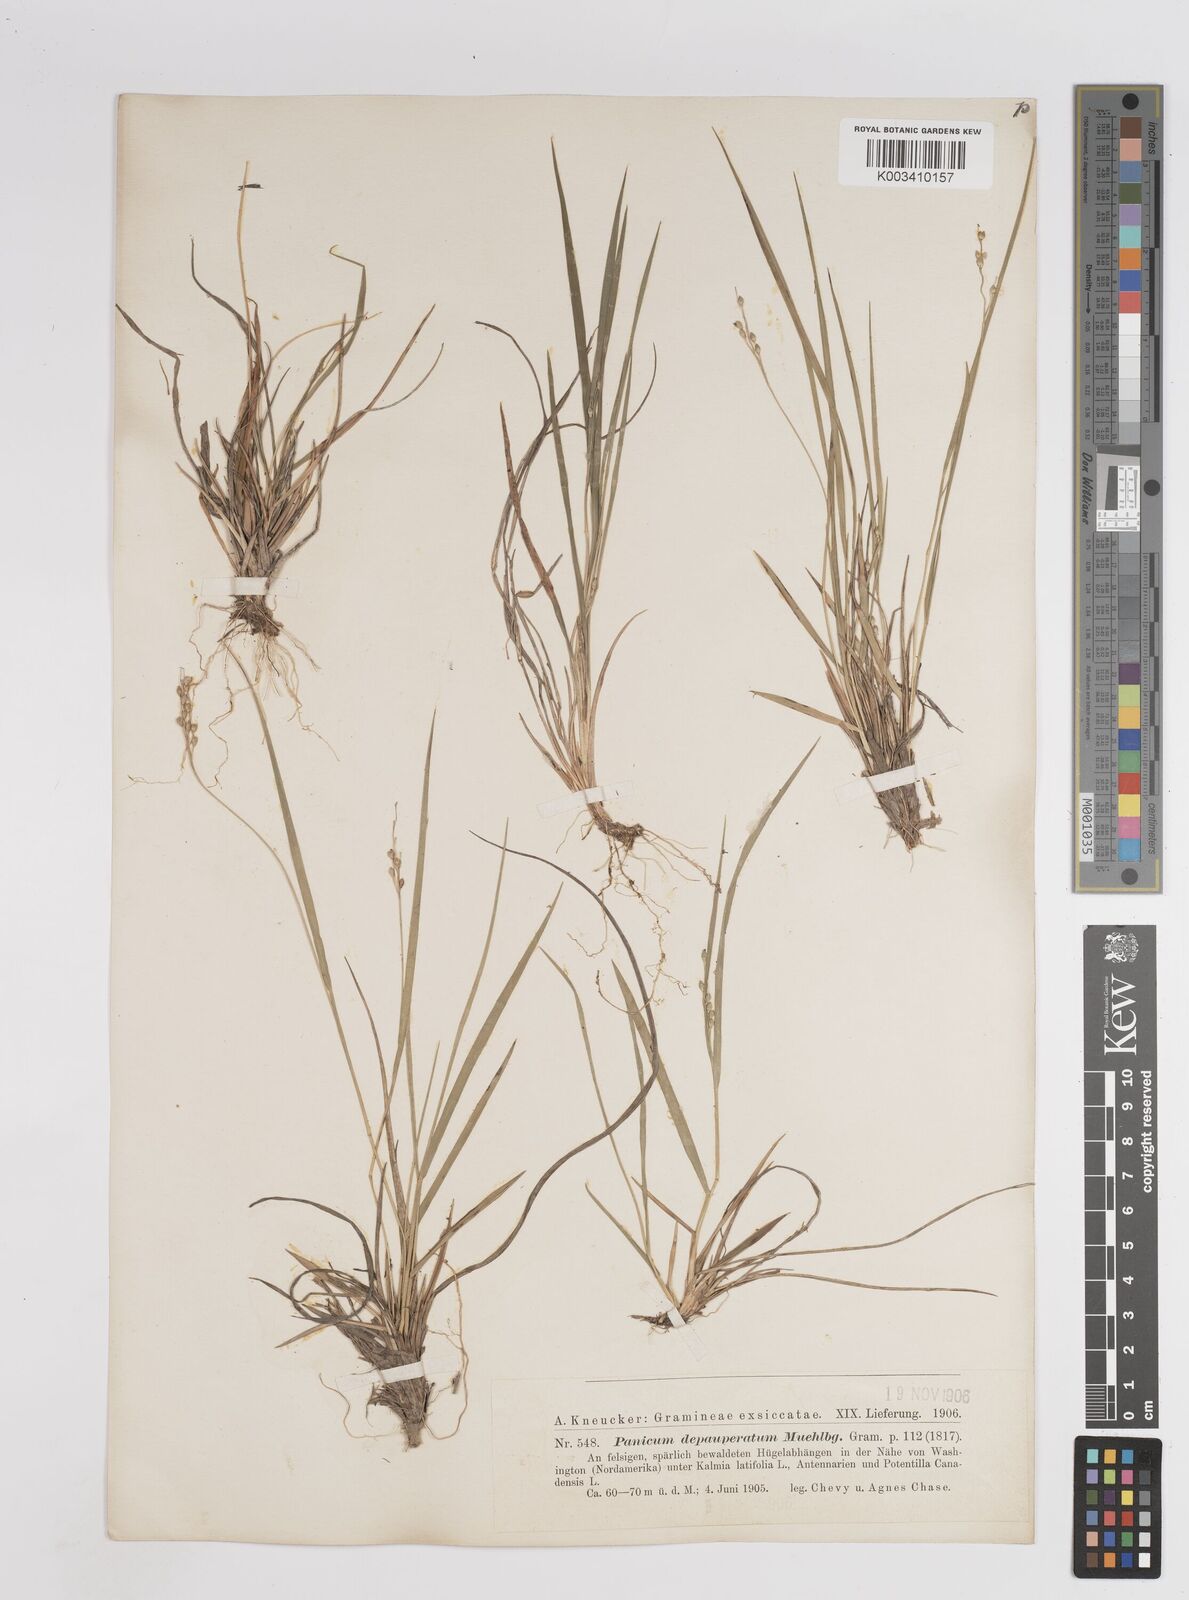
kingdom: Plantae
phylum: Tracheophyta
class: Liliopsida
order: Poales
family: Poaceae
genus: Dichanthelium
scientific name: Dichanthelium depauperatum
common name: Depauperate panicgrass
